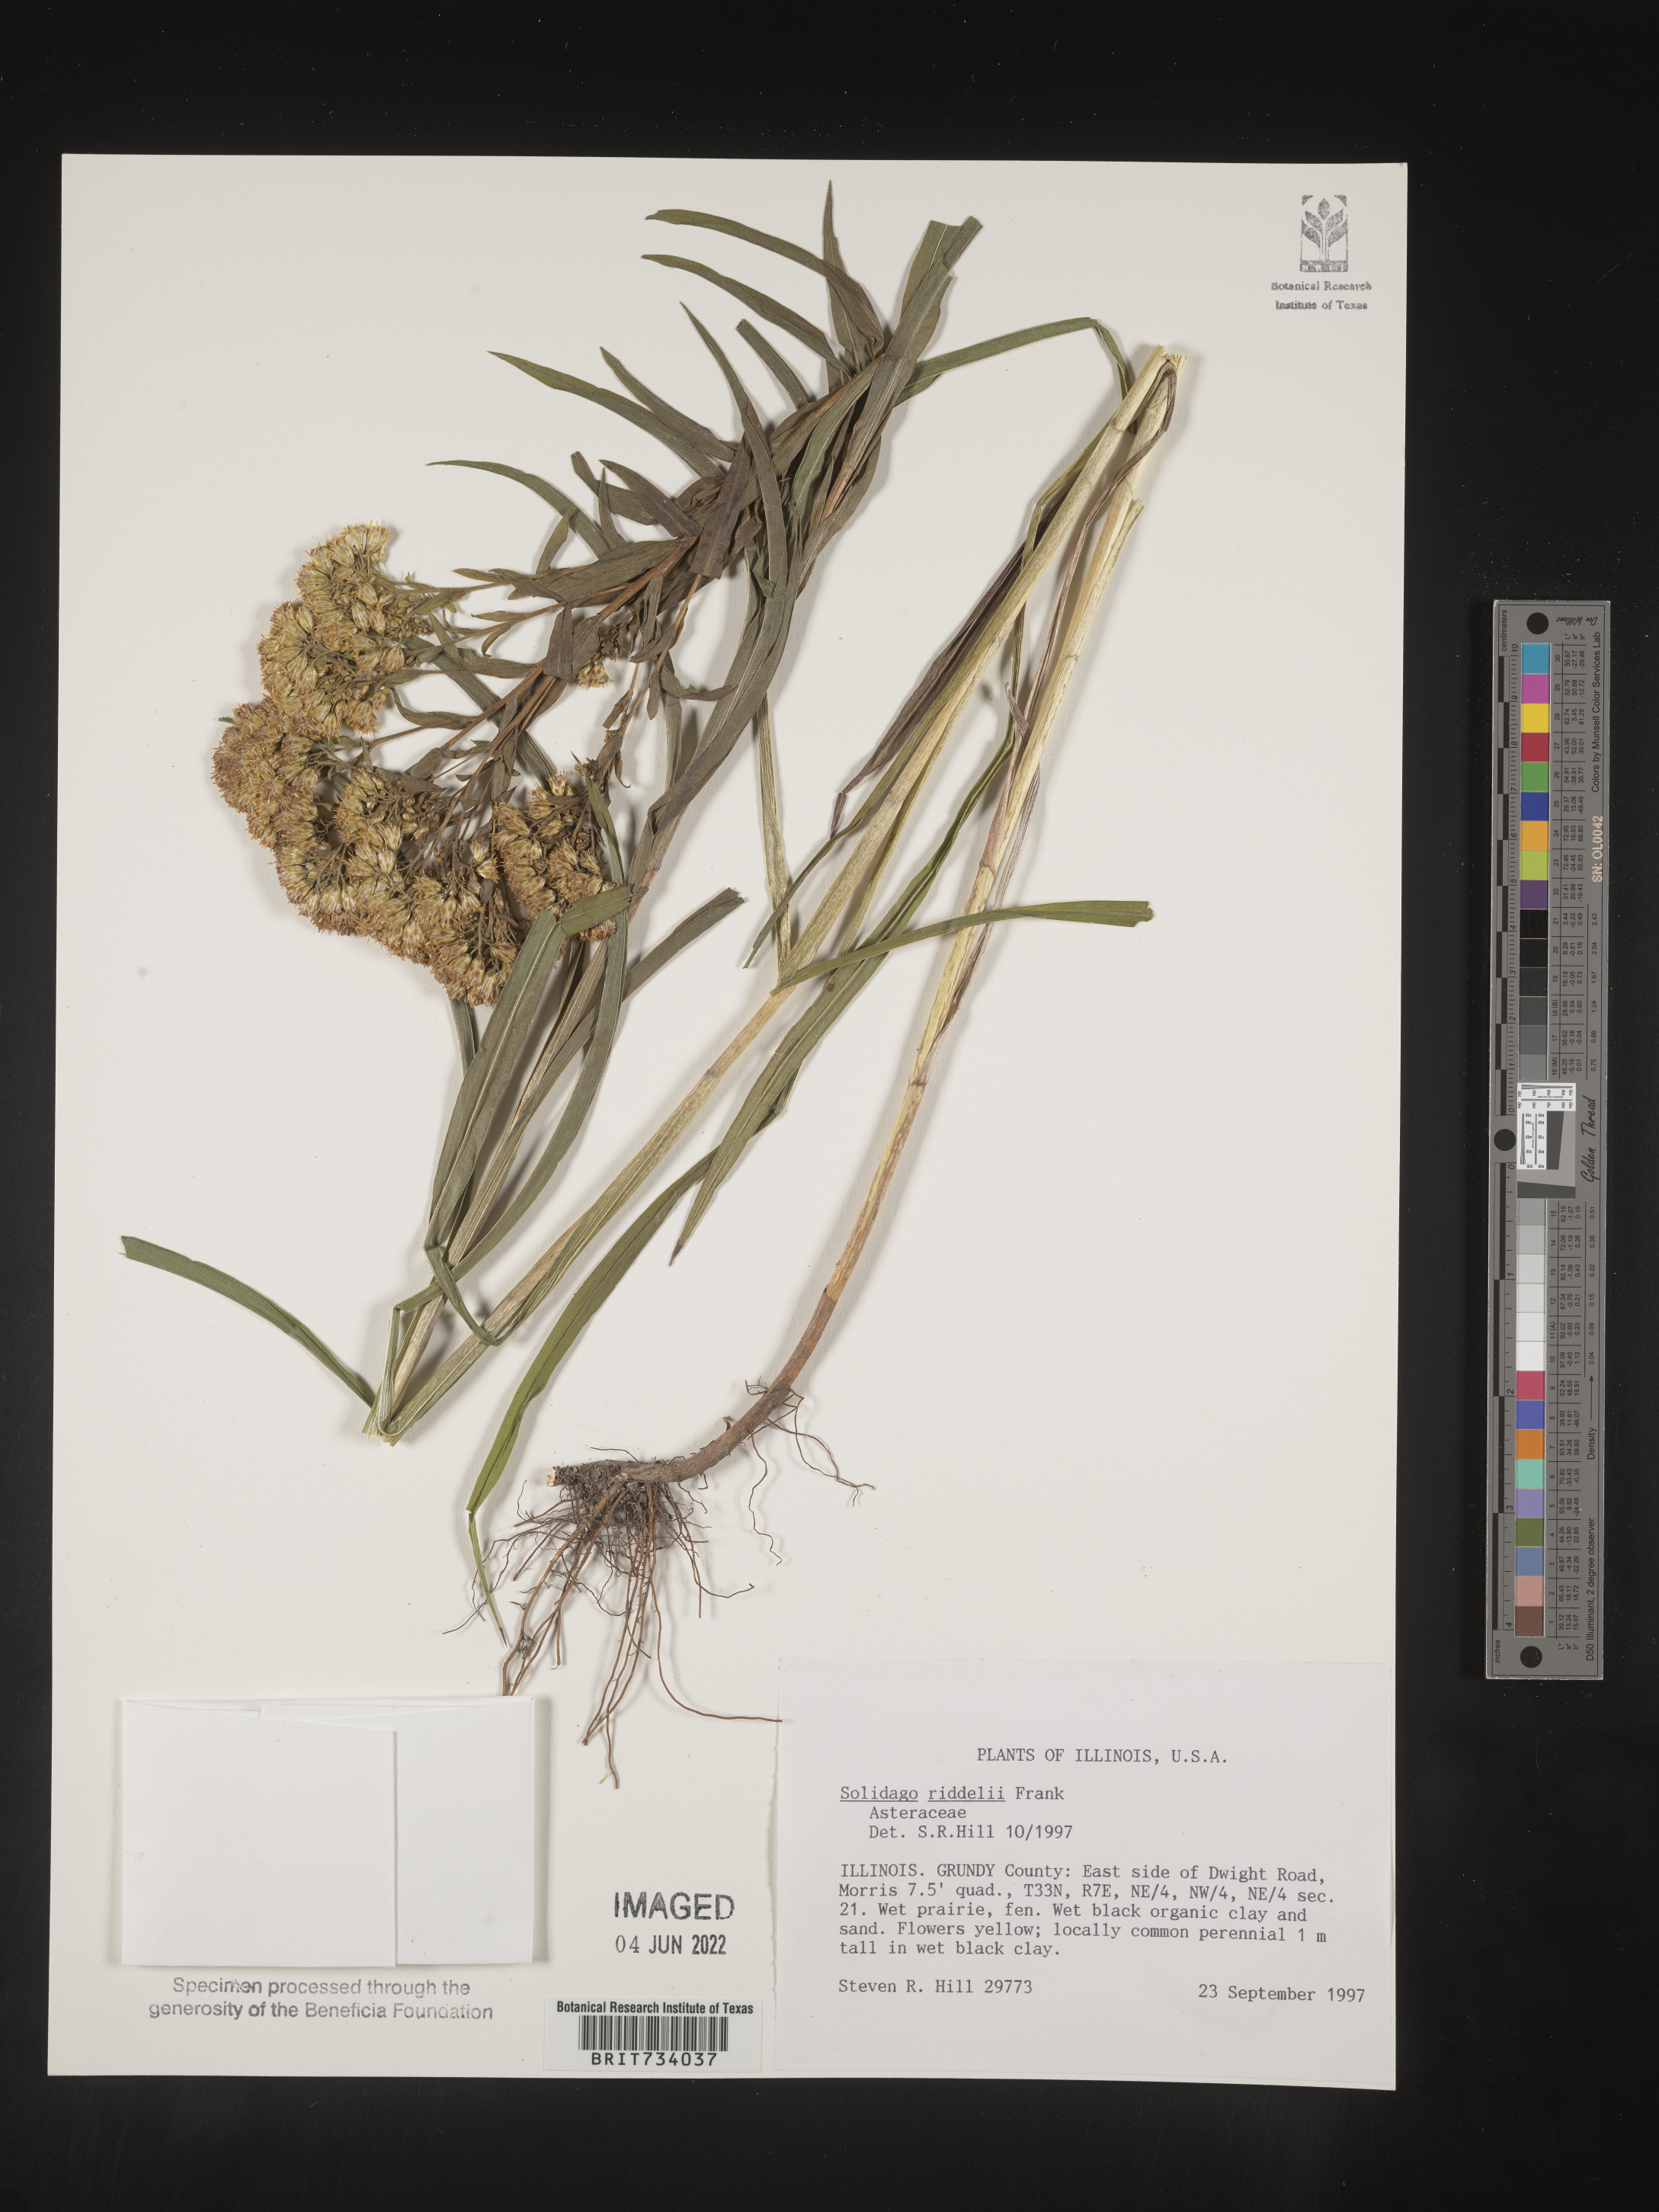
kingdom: Plantae
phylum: Tracheophyta
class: Magnoliopsida
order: Asterales
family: Asteraceae
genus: Solidago
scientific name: Solidago riddellii
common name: Riddell's goldenrod
